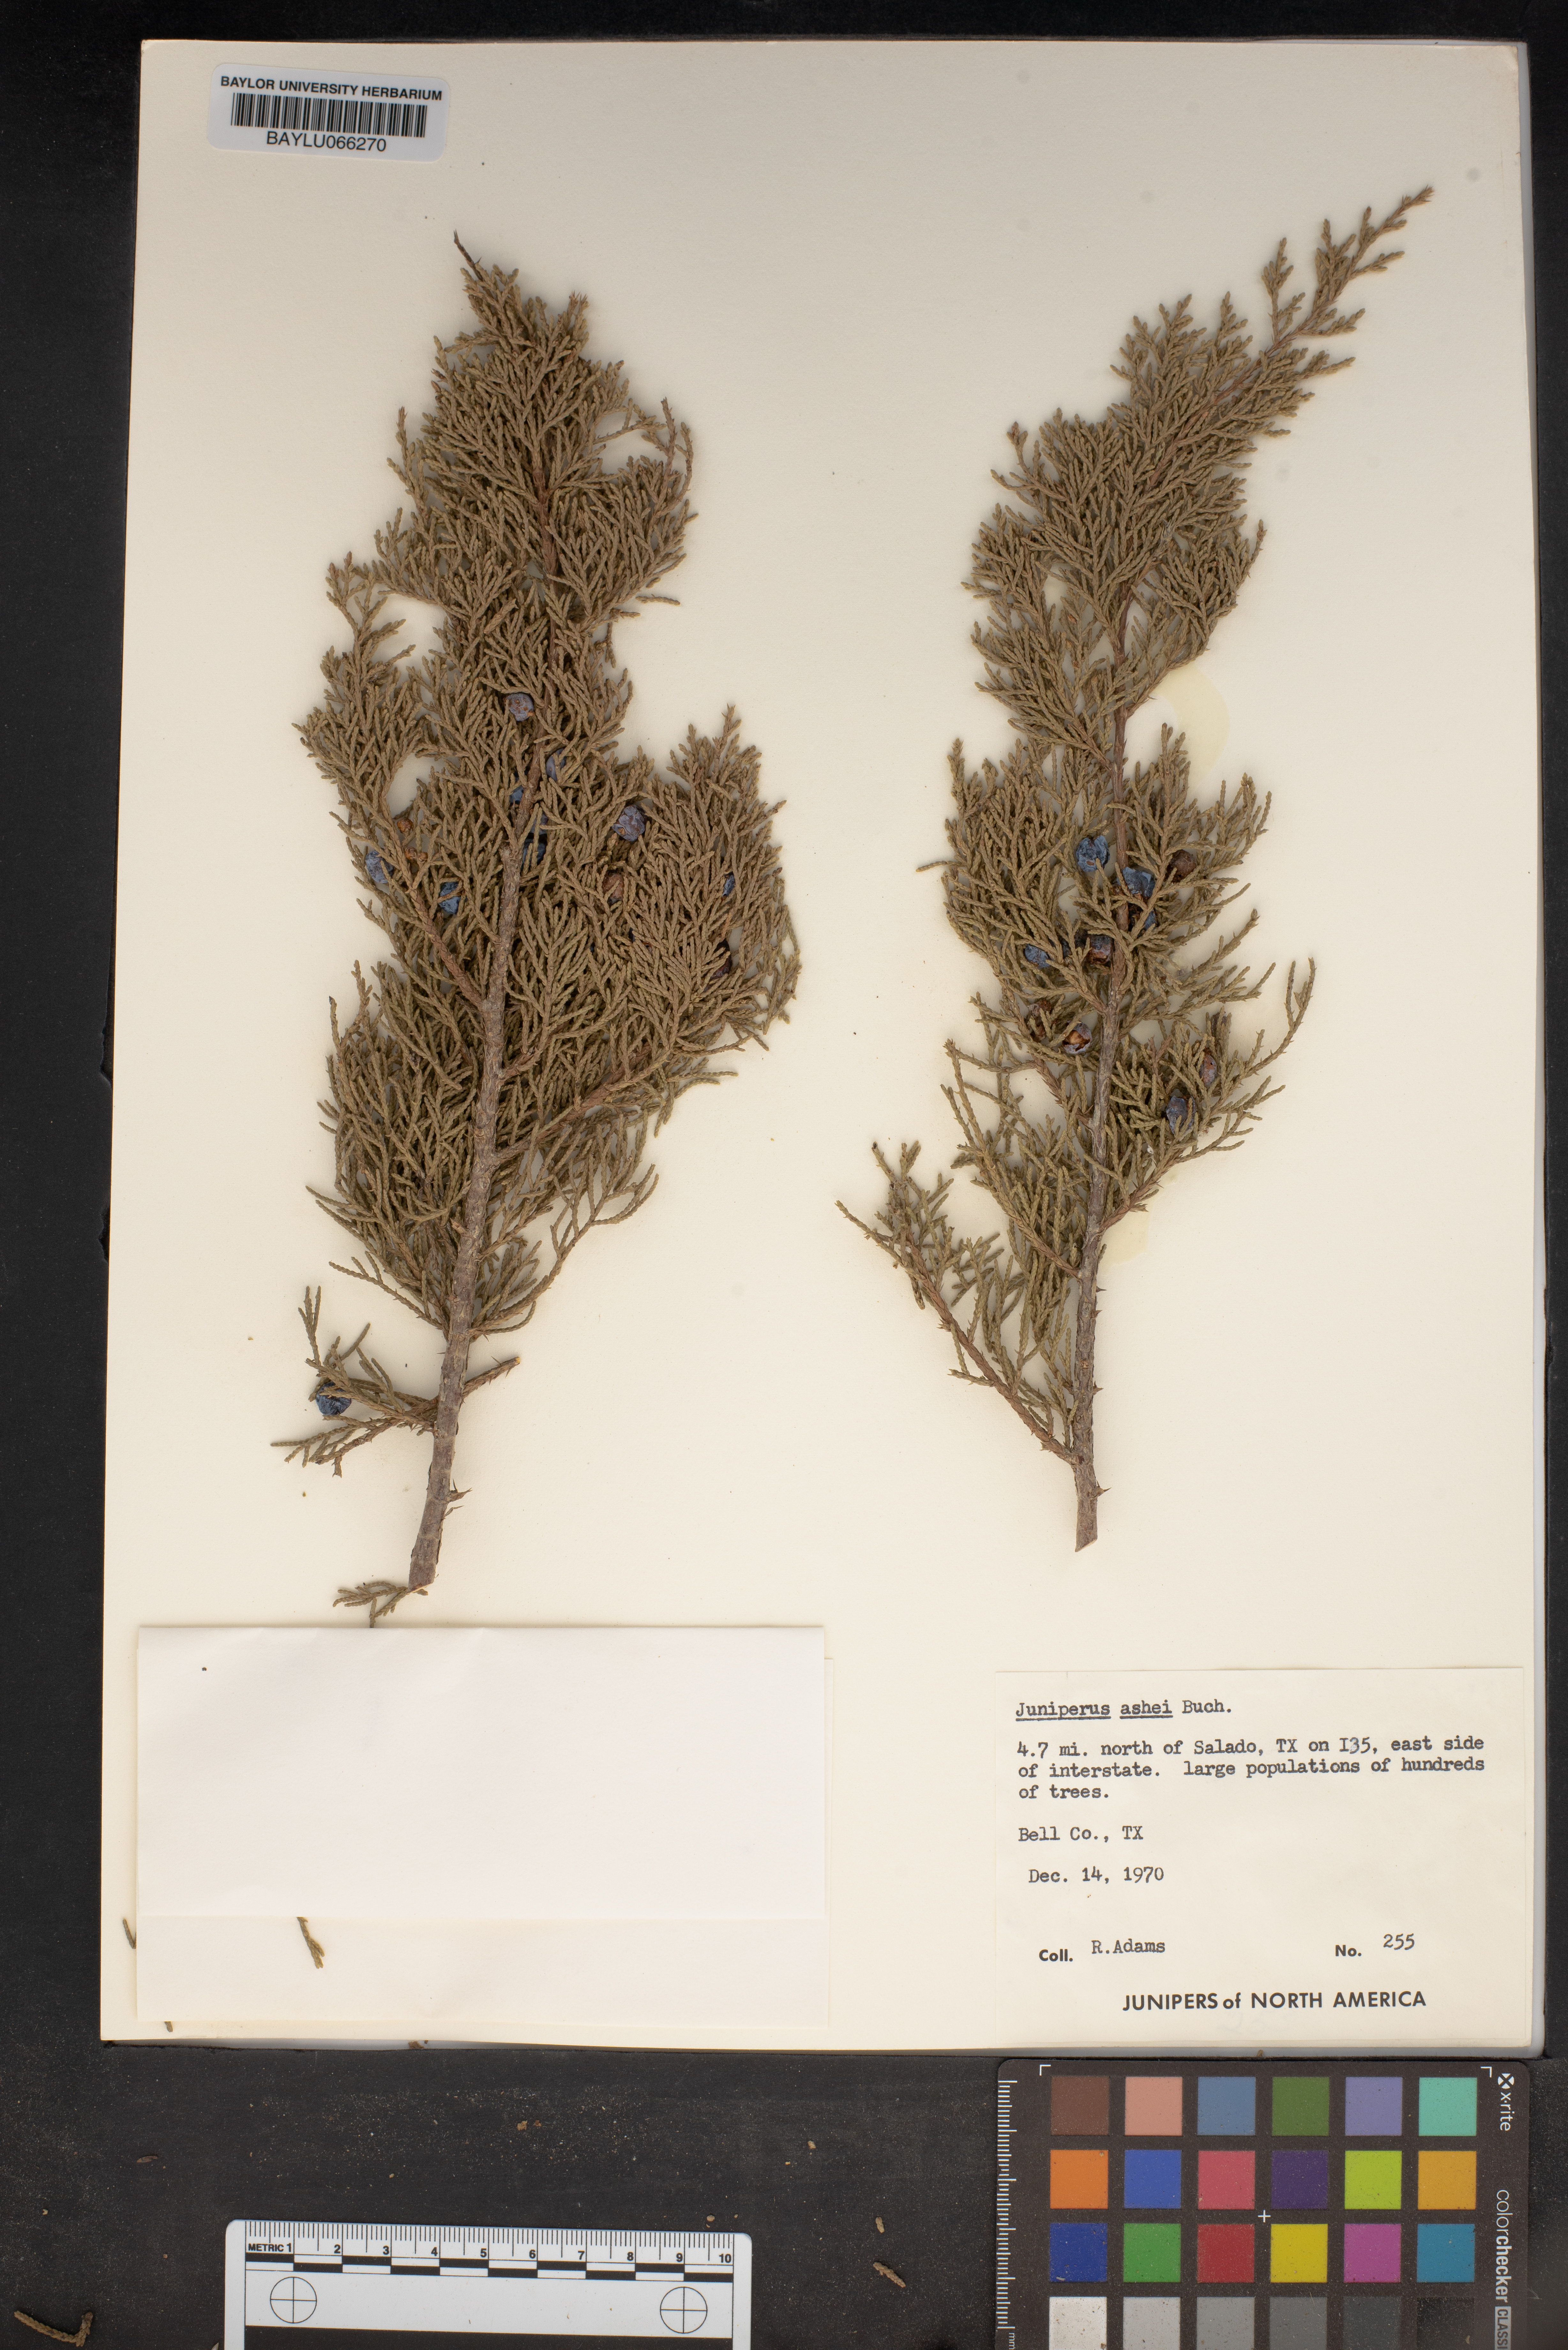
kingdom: Plantae
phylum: Tracheophyta
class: Pinopsida
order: Pinales
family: Cupressaceae
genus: Juniperus
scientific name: Juniperus ashei
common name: Mexican juniper
